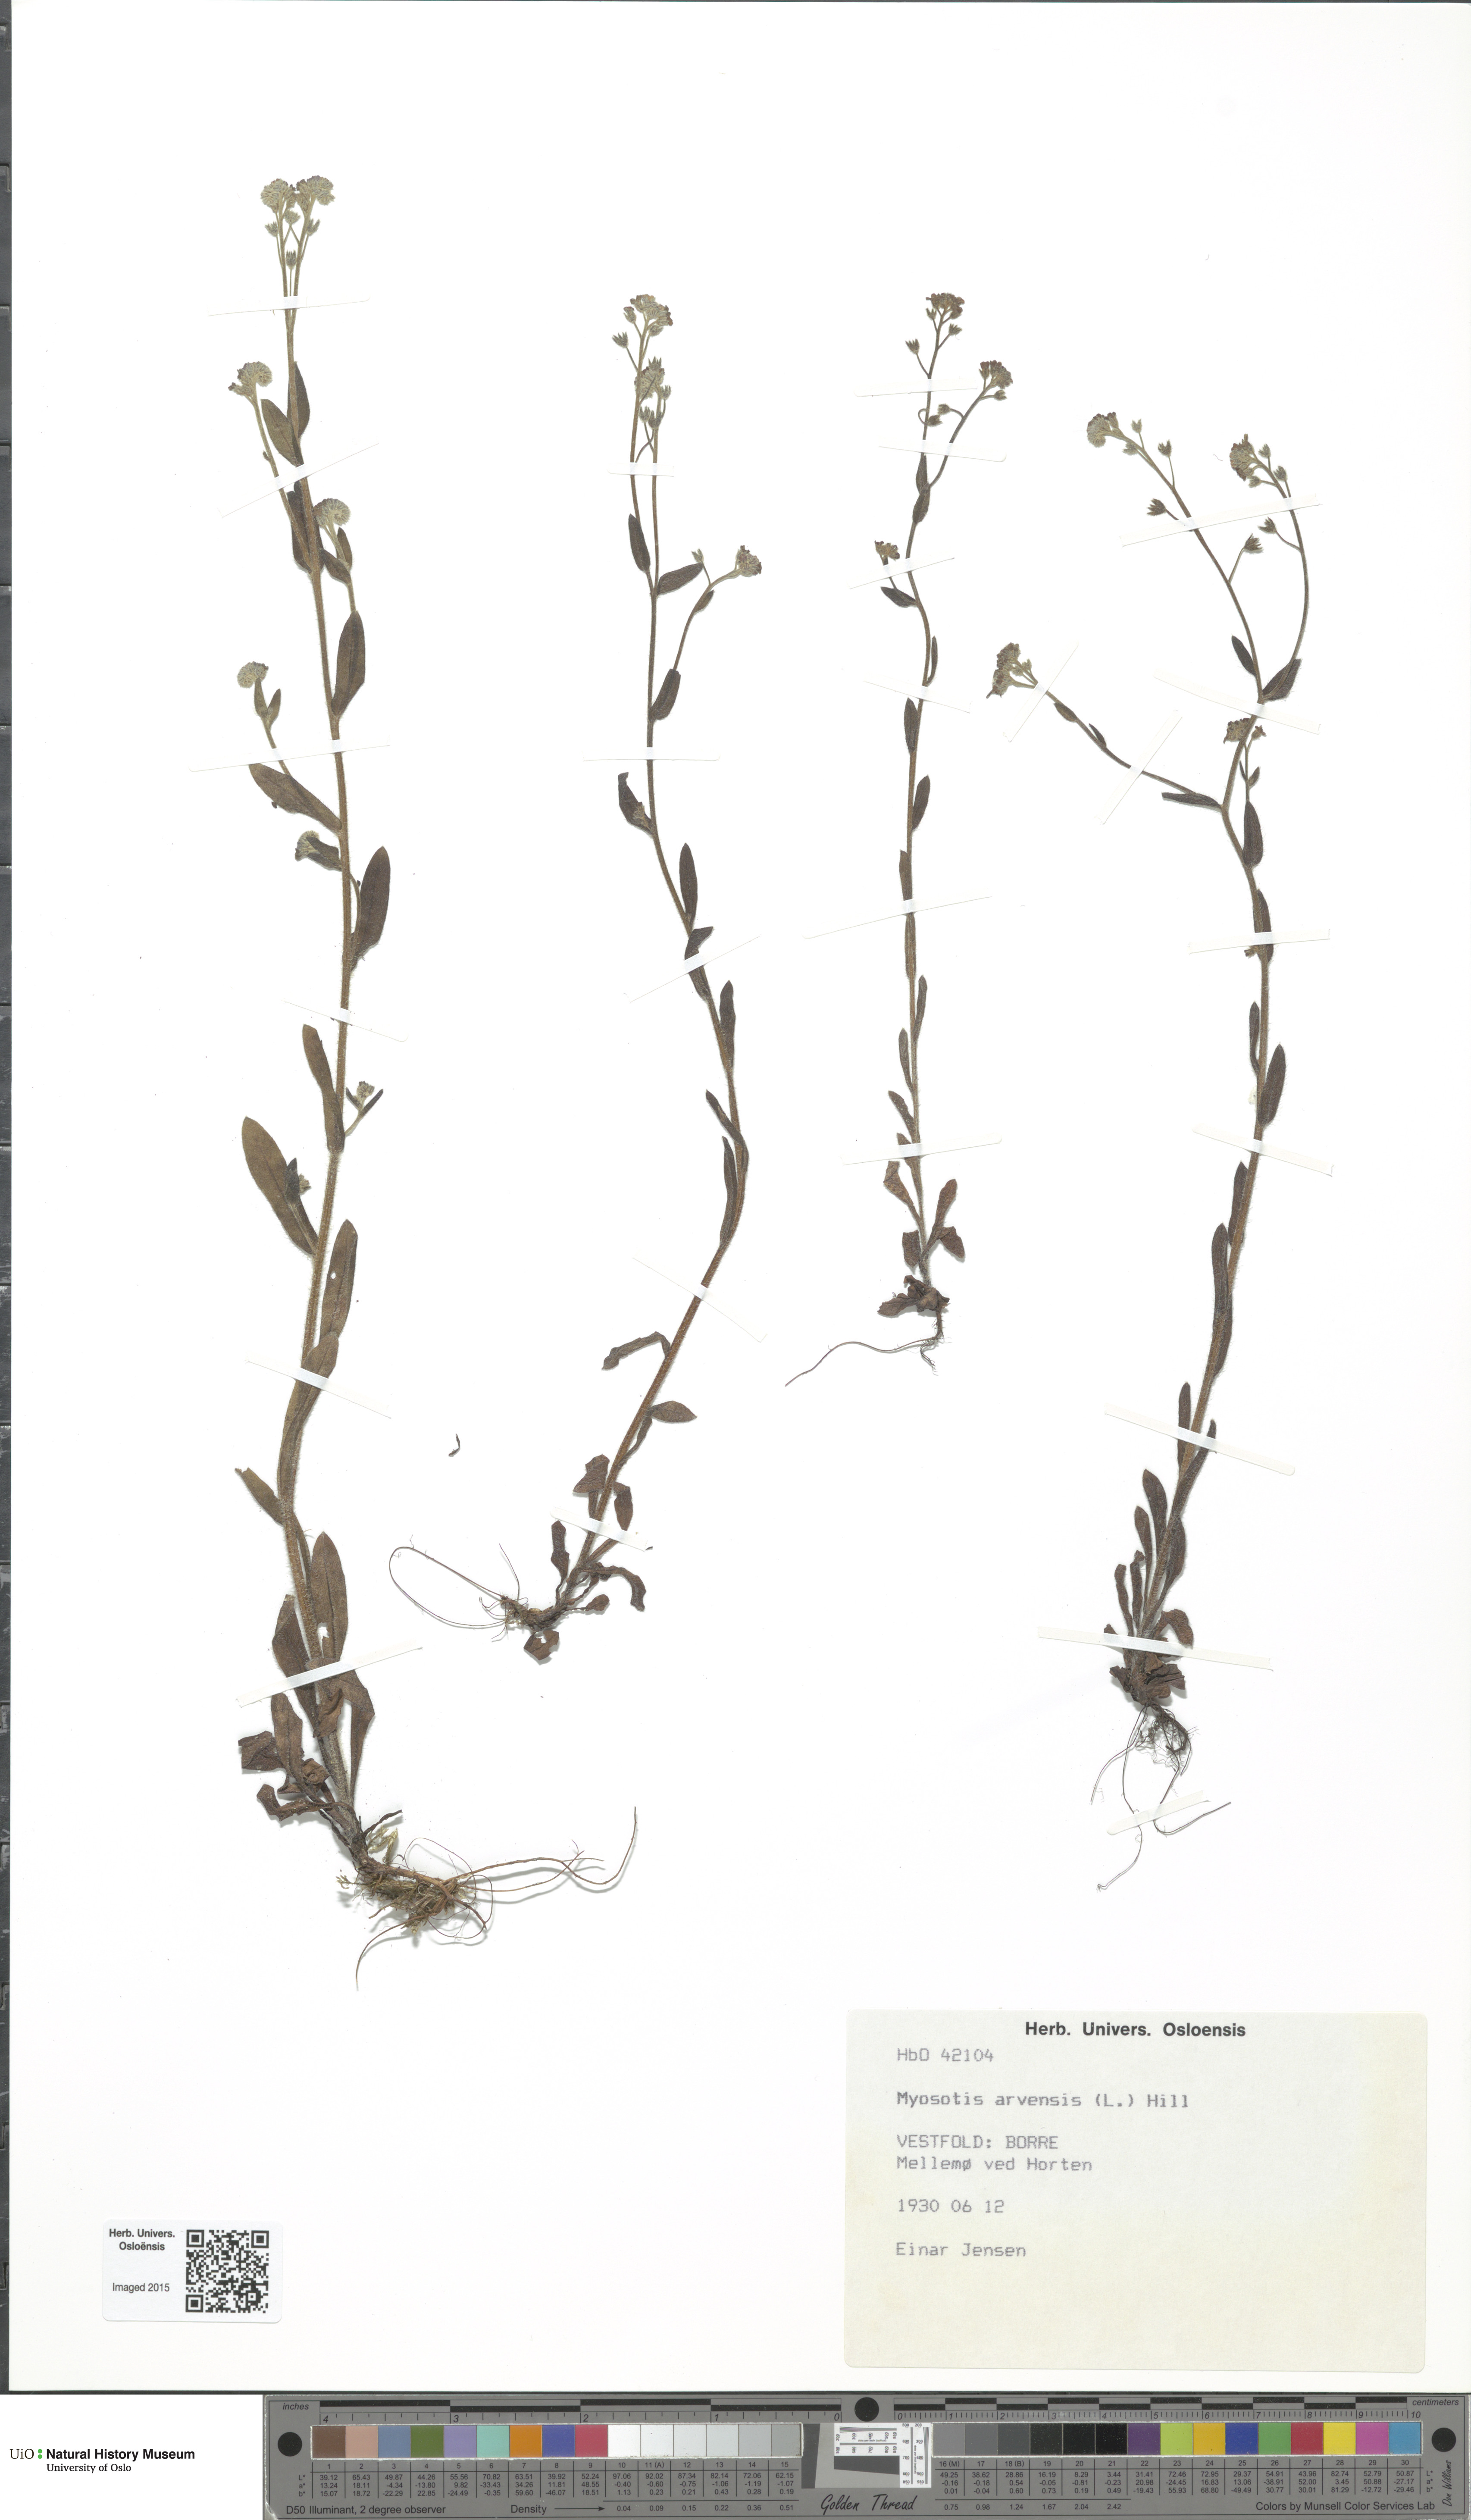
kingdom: Plantae
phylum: Tracheophyta
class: Magnoliopsida
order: Boraginales
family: Boraginaceae
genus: Myosotis
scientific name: Myosotis arvensis
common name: Field forget-me-not
